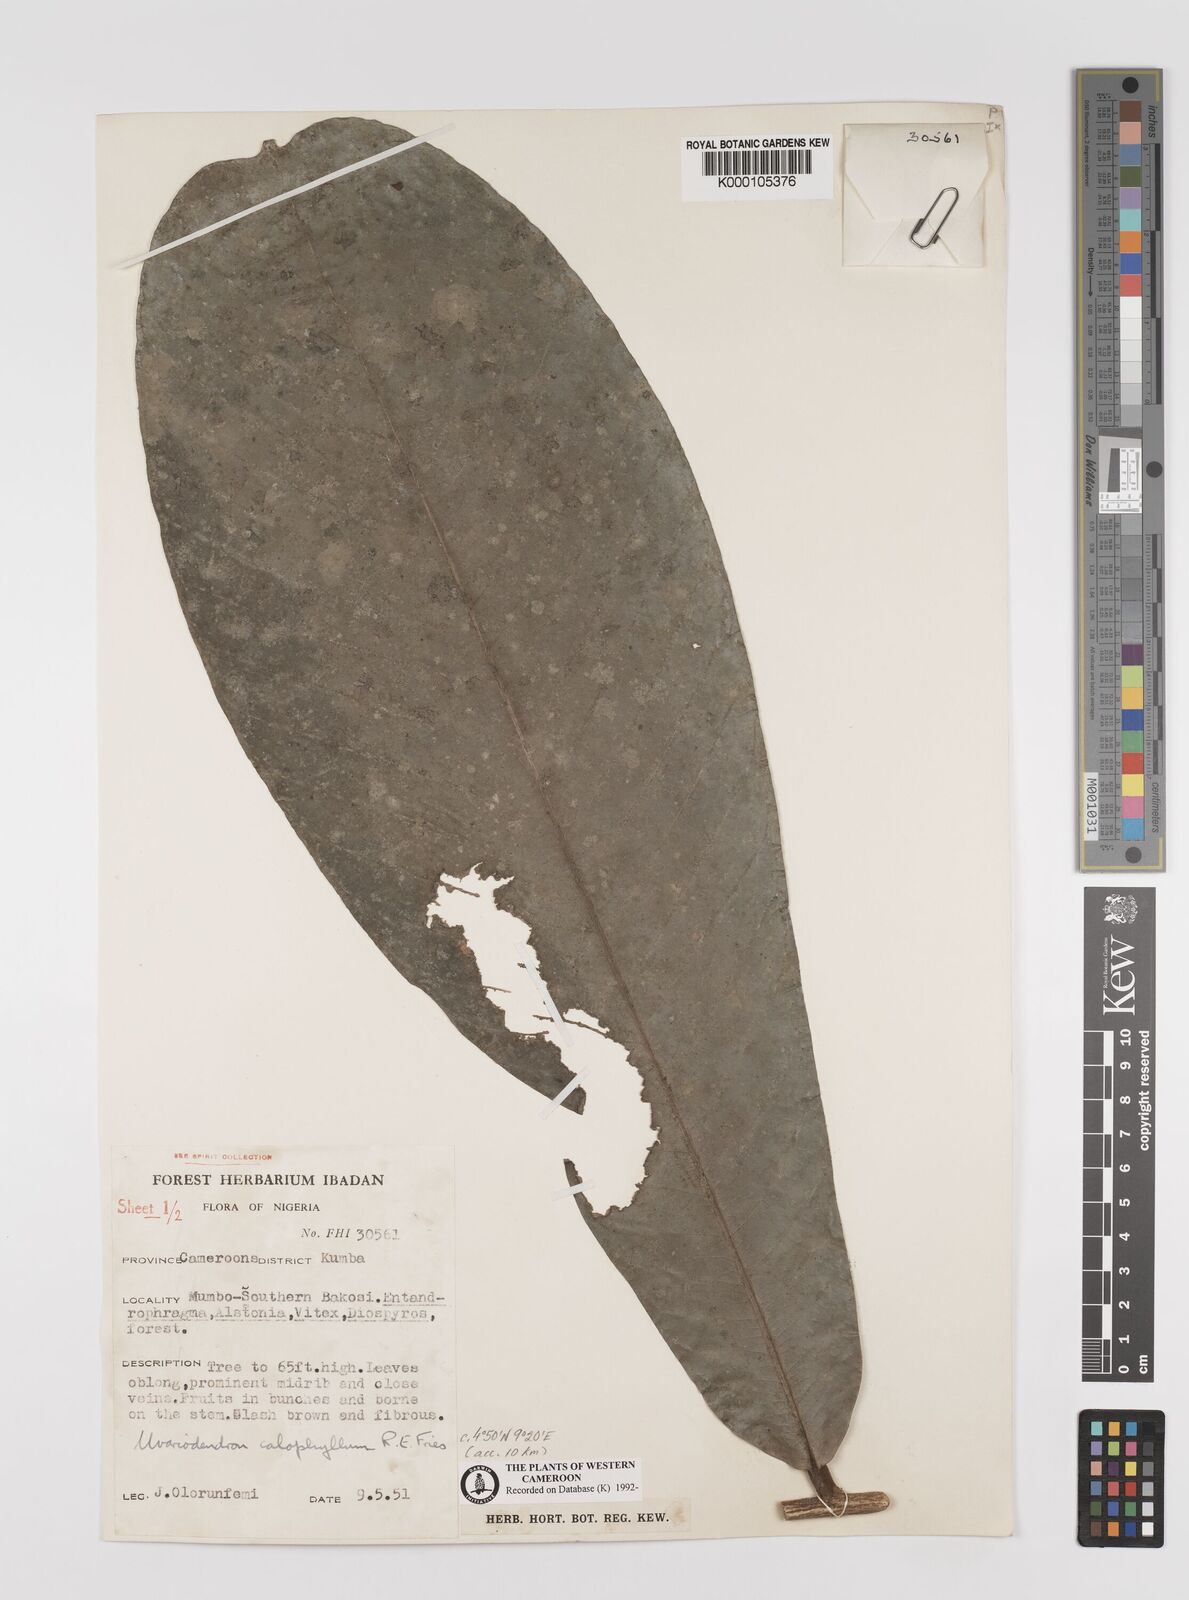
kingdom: Plantae
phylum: Tracheophyta
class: Magnoliopsida
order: Magnoliales
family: Annonaceae
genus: Uvariodendron
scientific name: Uvariodendron calophyllum
